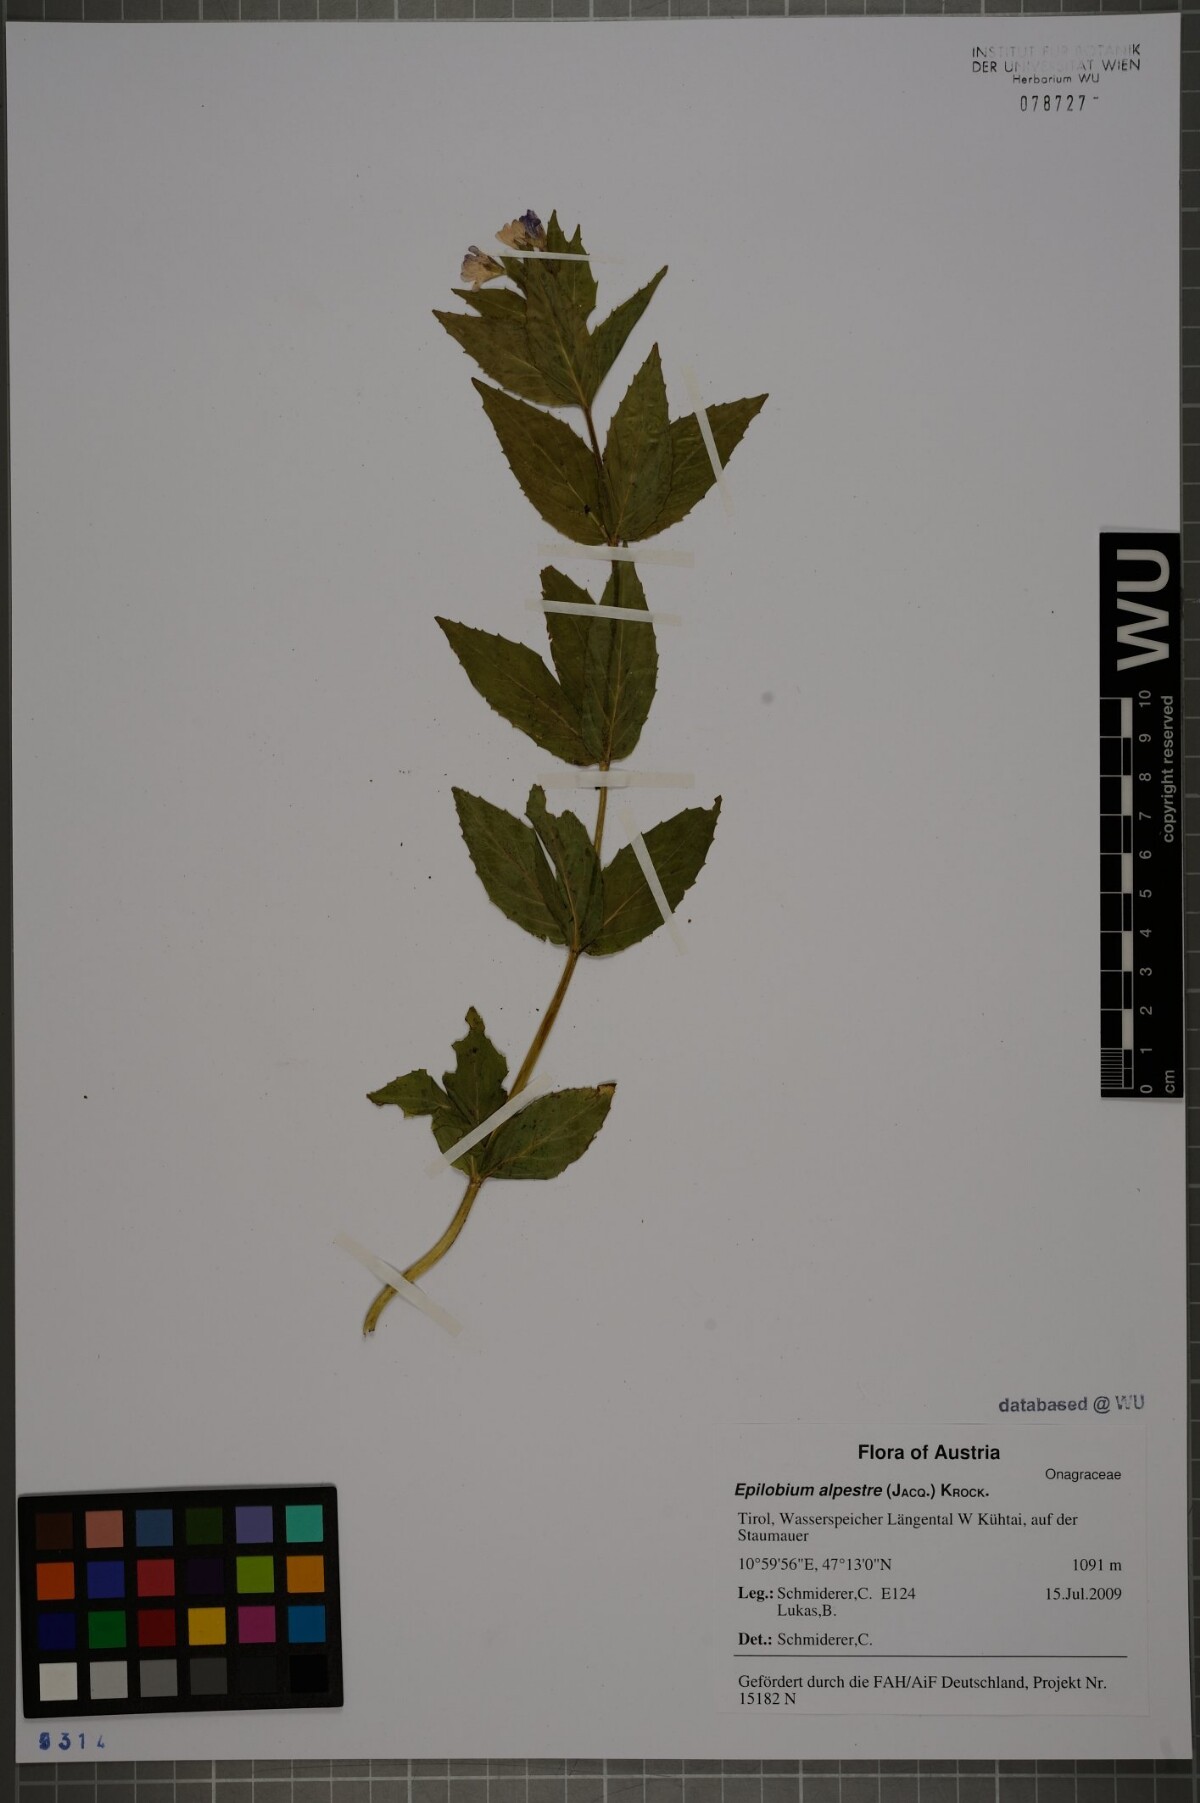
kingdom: Plantae
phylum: Tracheophyta
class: Magnoliopsida
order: Myrtales
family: Onagraceae
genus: Epilobium
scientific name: Epilobium alpestre
